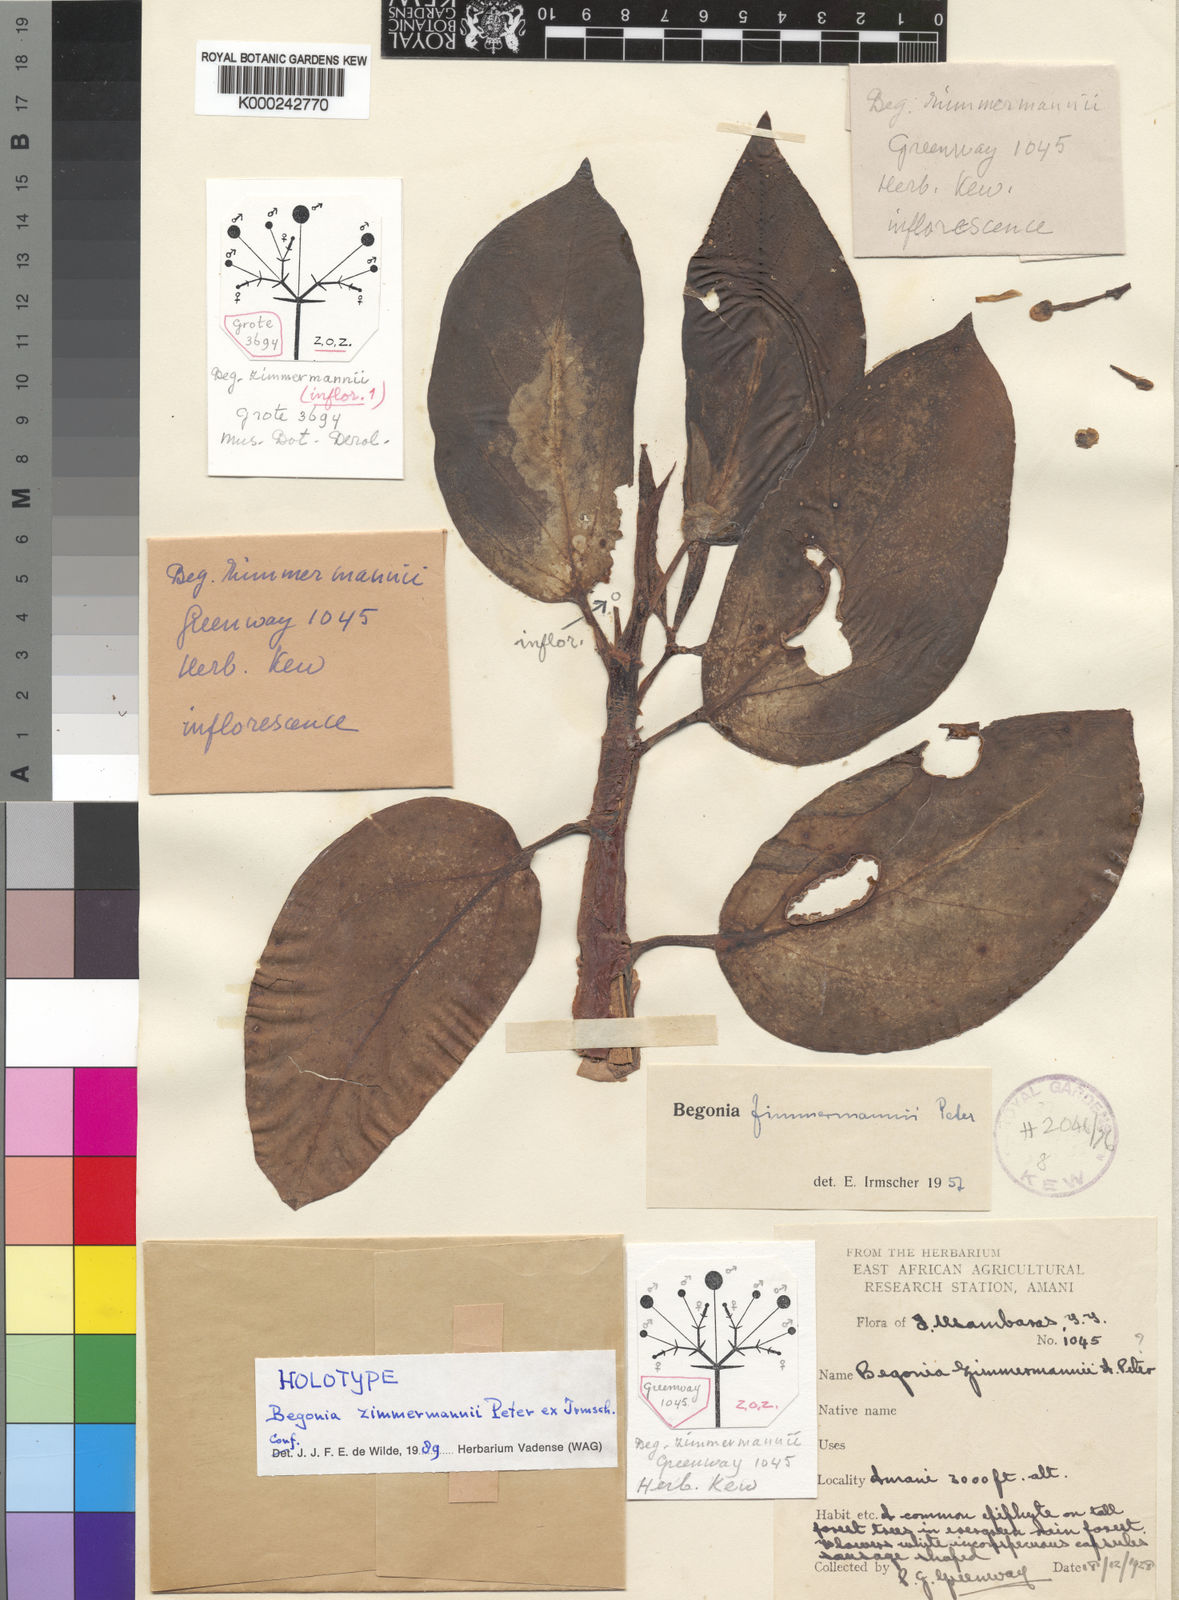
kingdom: Plantae
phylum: Tracheophyta
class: Magnoliopsida
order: Cucurbitales
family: Begoniaceae
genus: Begonia
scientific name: Begonia zimmermannii
